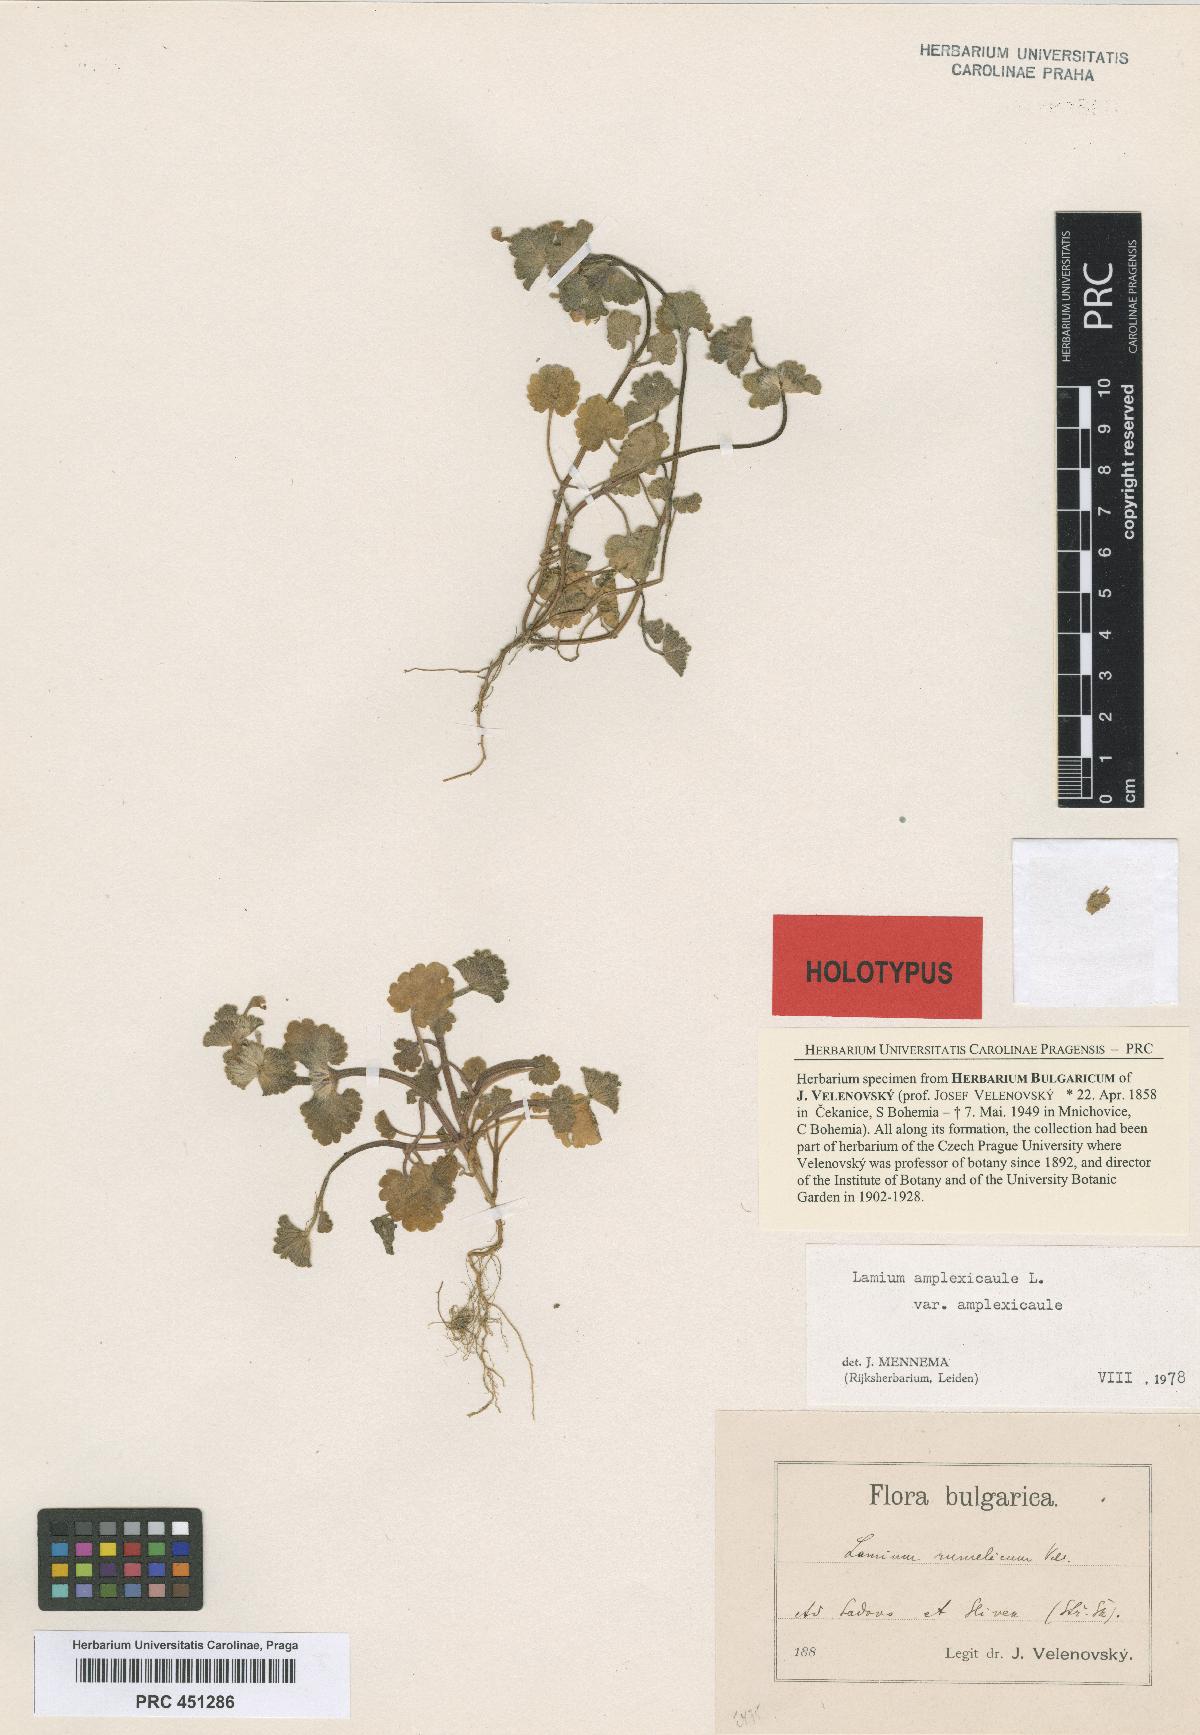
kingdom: Plantae
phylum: Tracheophyta
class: Magnoliopsida
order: Lamiales
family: Lamiaceae
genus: Lamium
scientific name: Lamium amplexicaule
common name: Henbit dead-nettle
